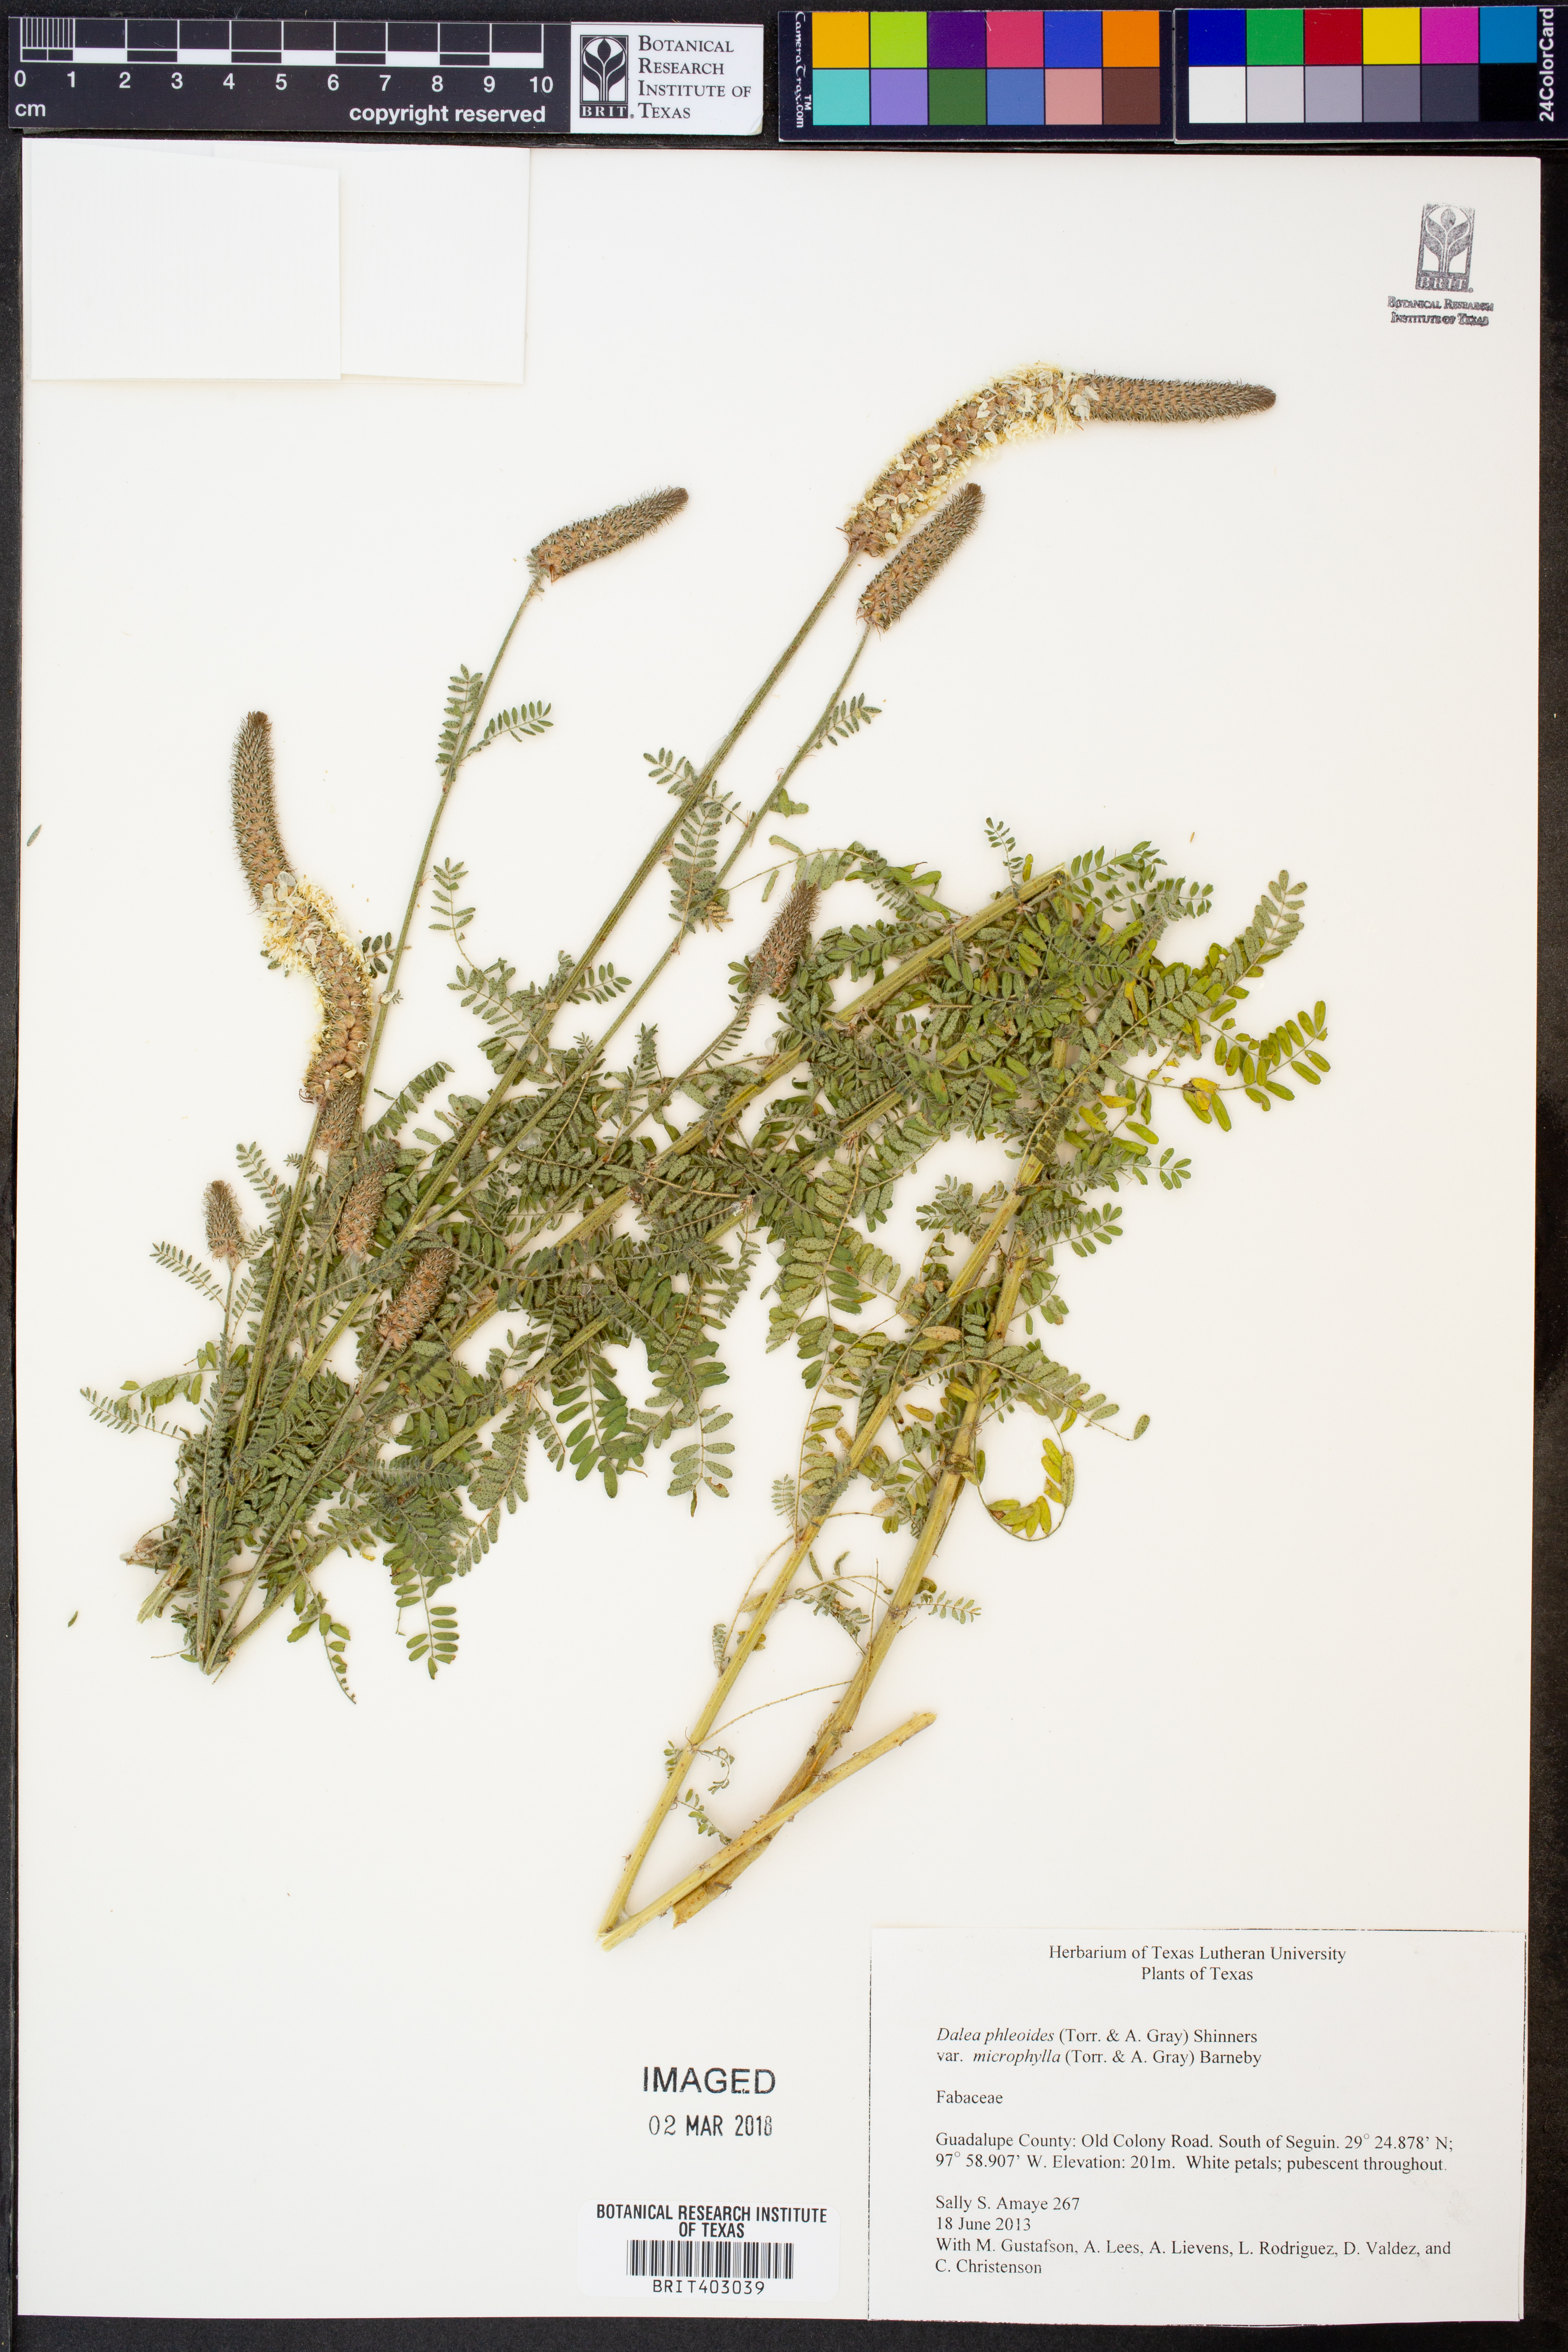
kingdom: Plantae
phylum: Tracheophyta
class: Magnoliopsida
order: Fabales
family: Fabaceae
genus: Dalea
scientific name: Dalea drummondiana
